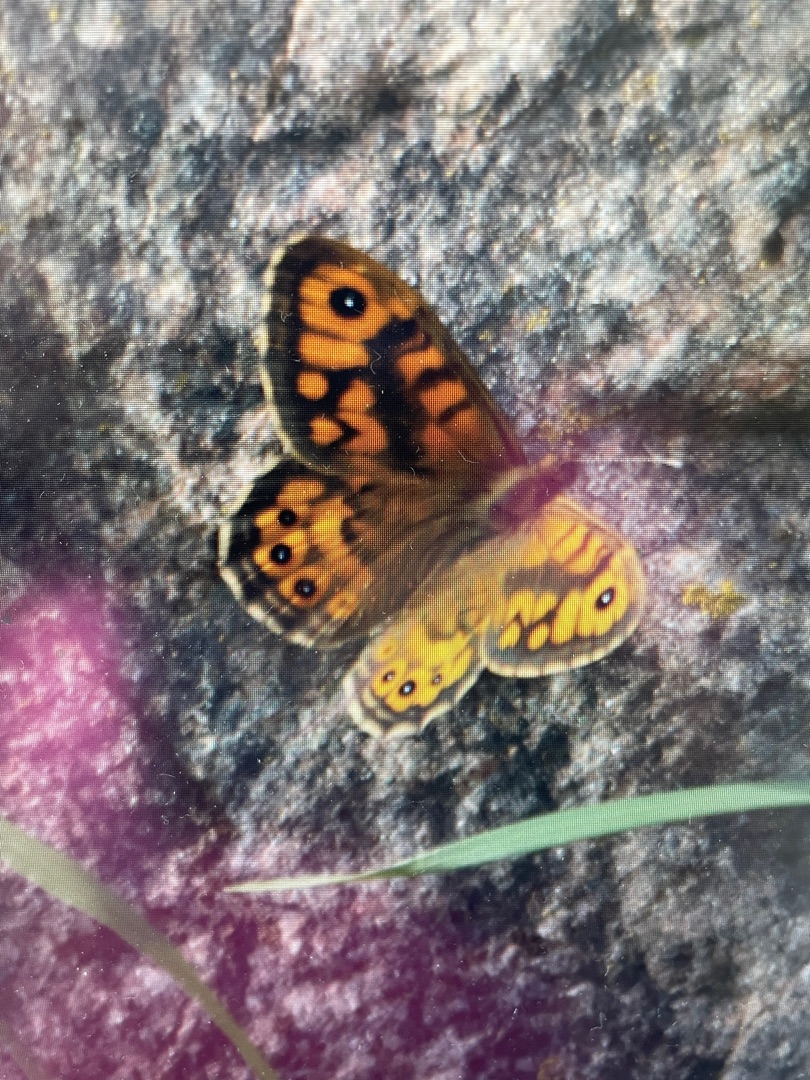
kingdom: Animalia
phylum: Arthropoda
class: Insecta
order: Lepidoptera
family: Nymphalidae
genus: Pararge
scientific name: Pararge Lasiommata megera
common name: Vejrandøje
